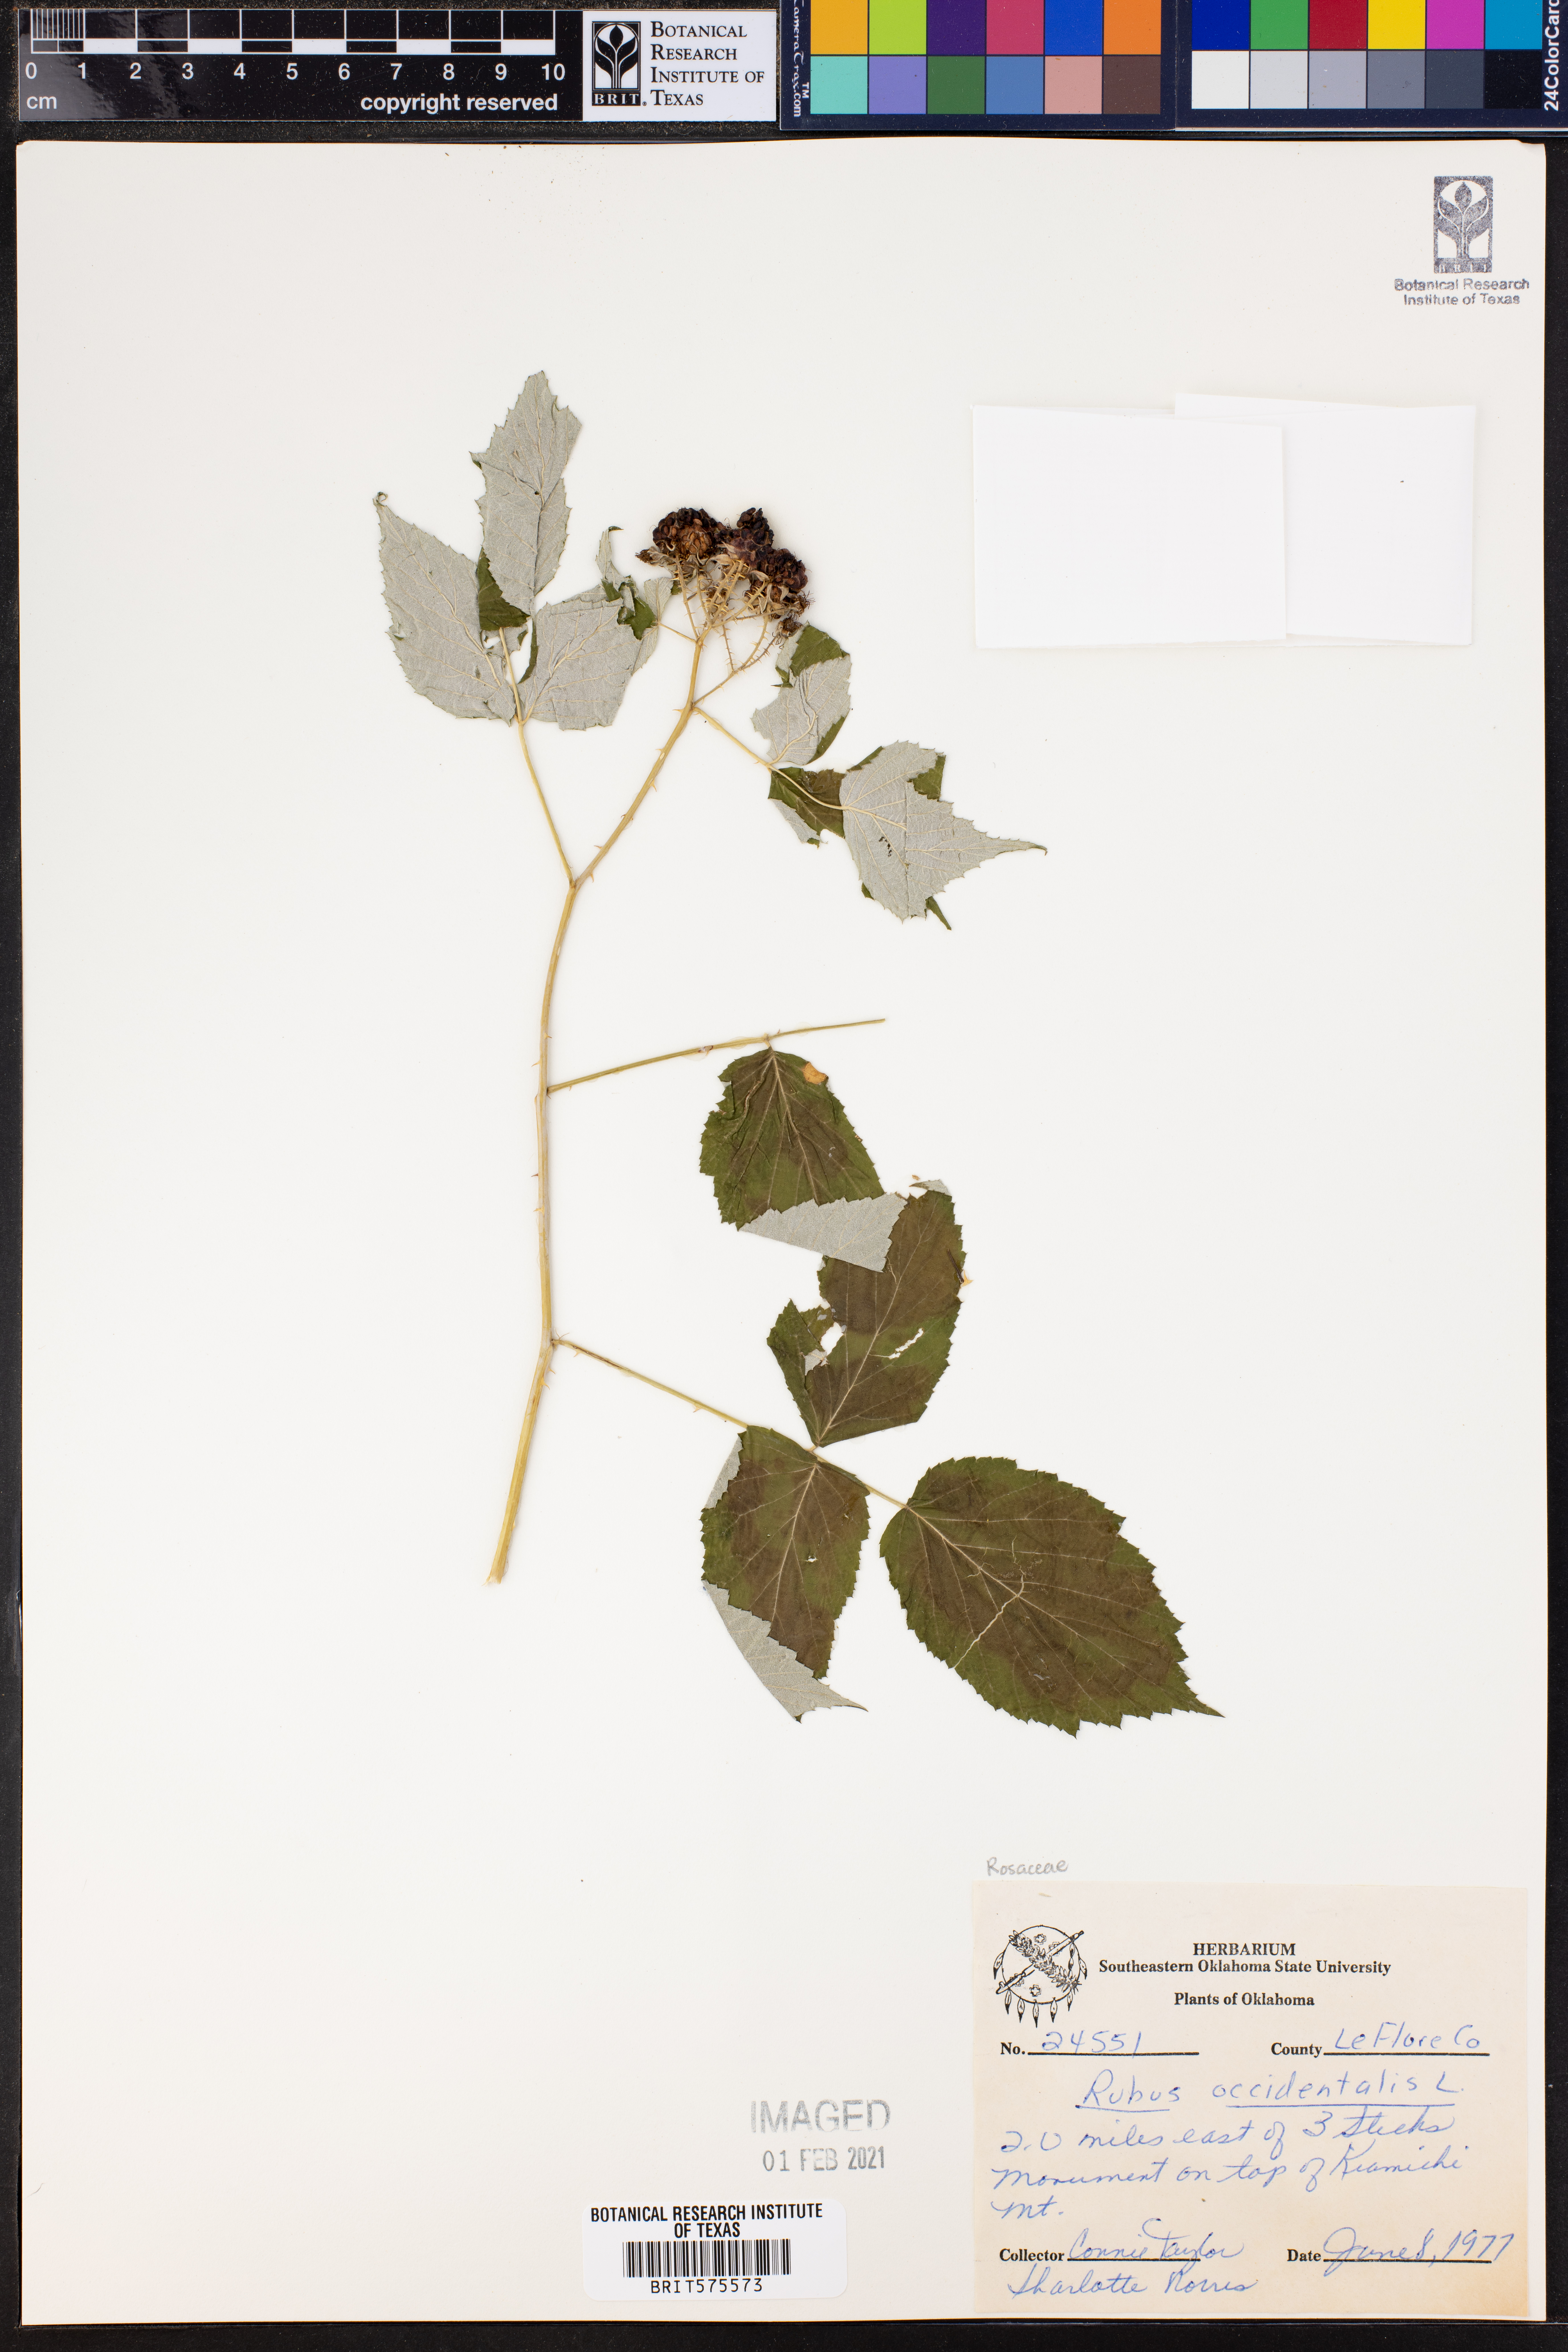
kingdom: Plantae
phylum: Tracheophyta
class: Magnoliopsida
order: Rosales
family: Rosaceae
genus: Rubus
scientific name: Rubus occidentalis
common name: Black raspberry
